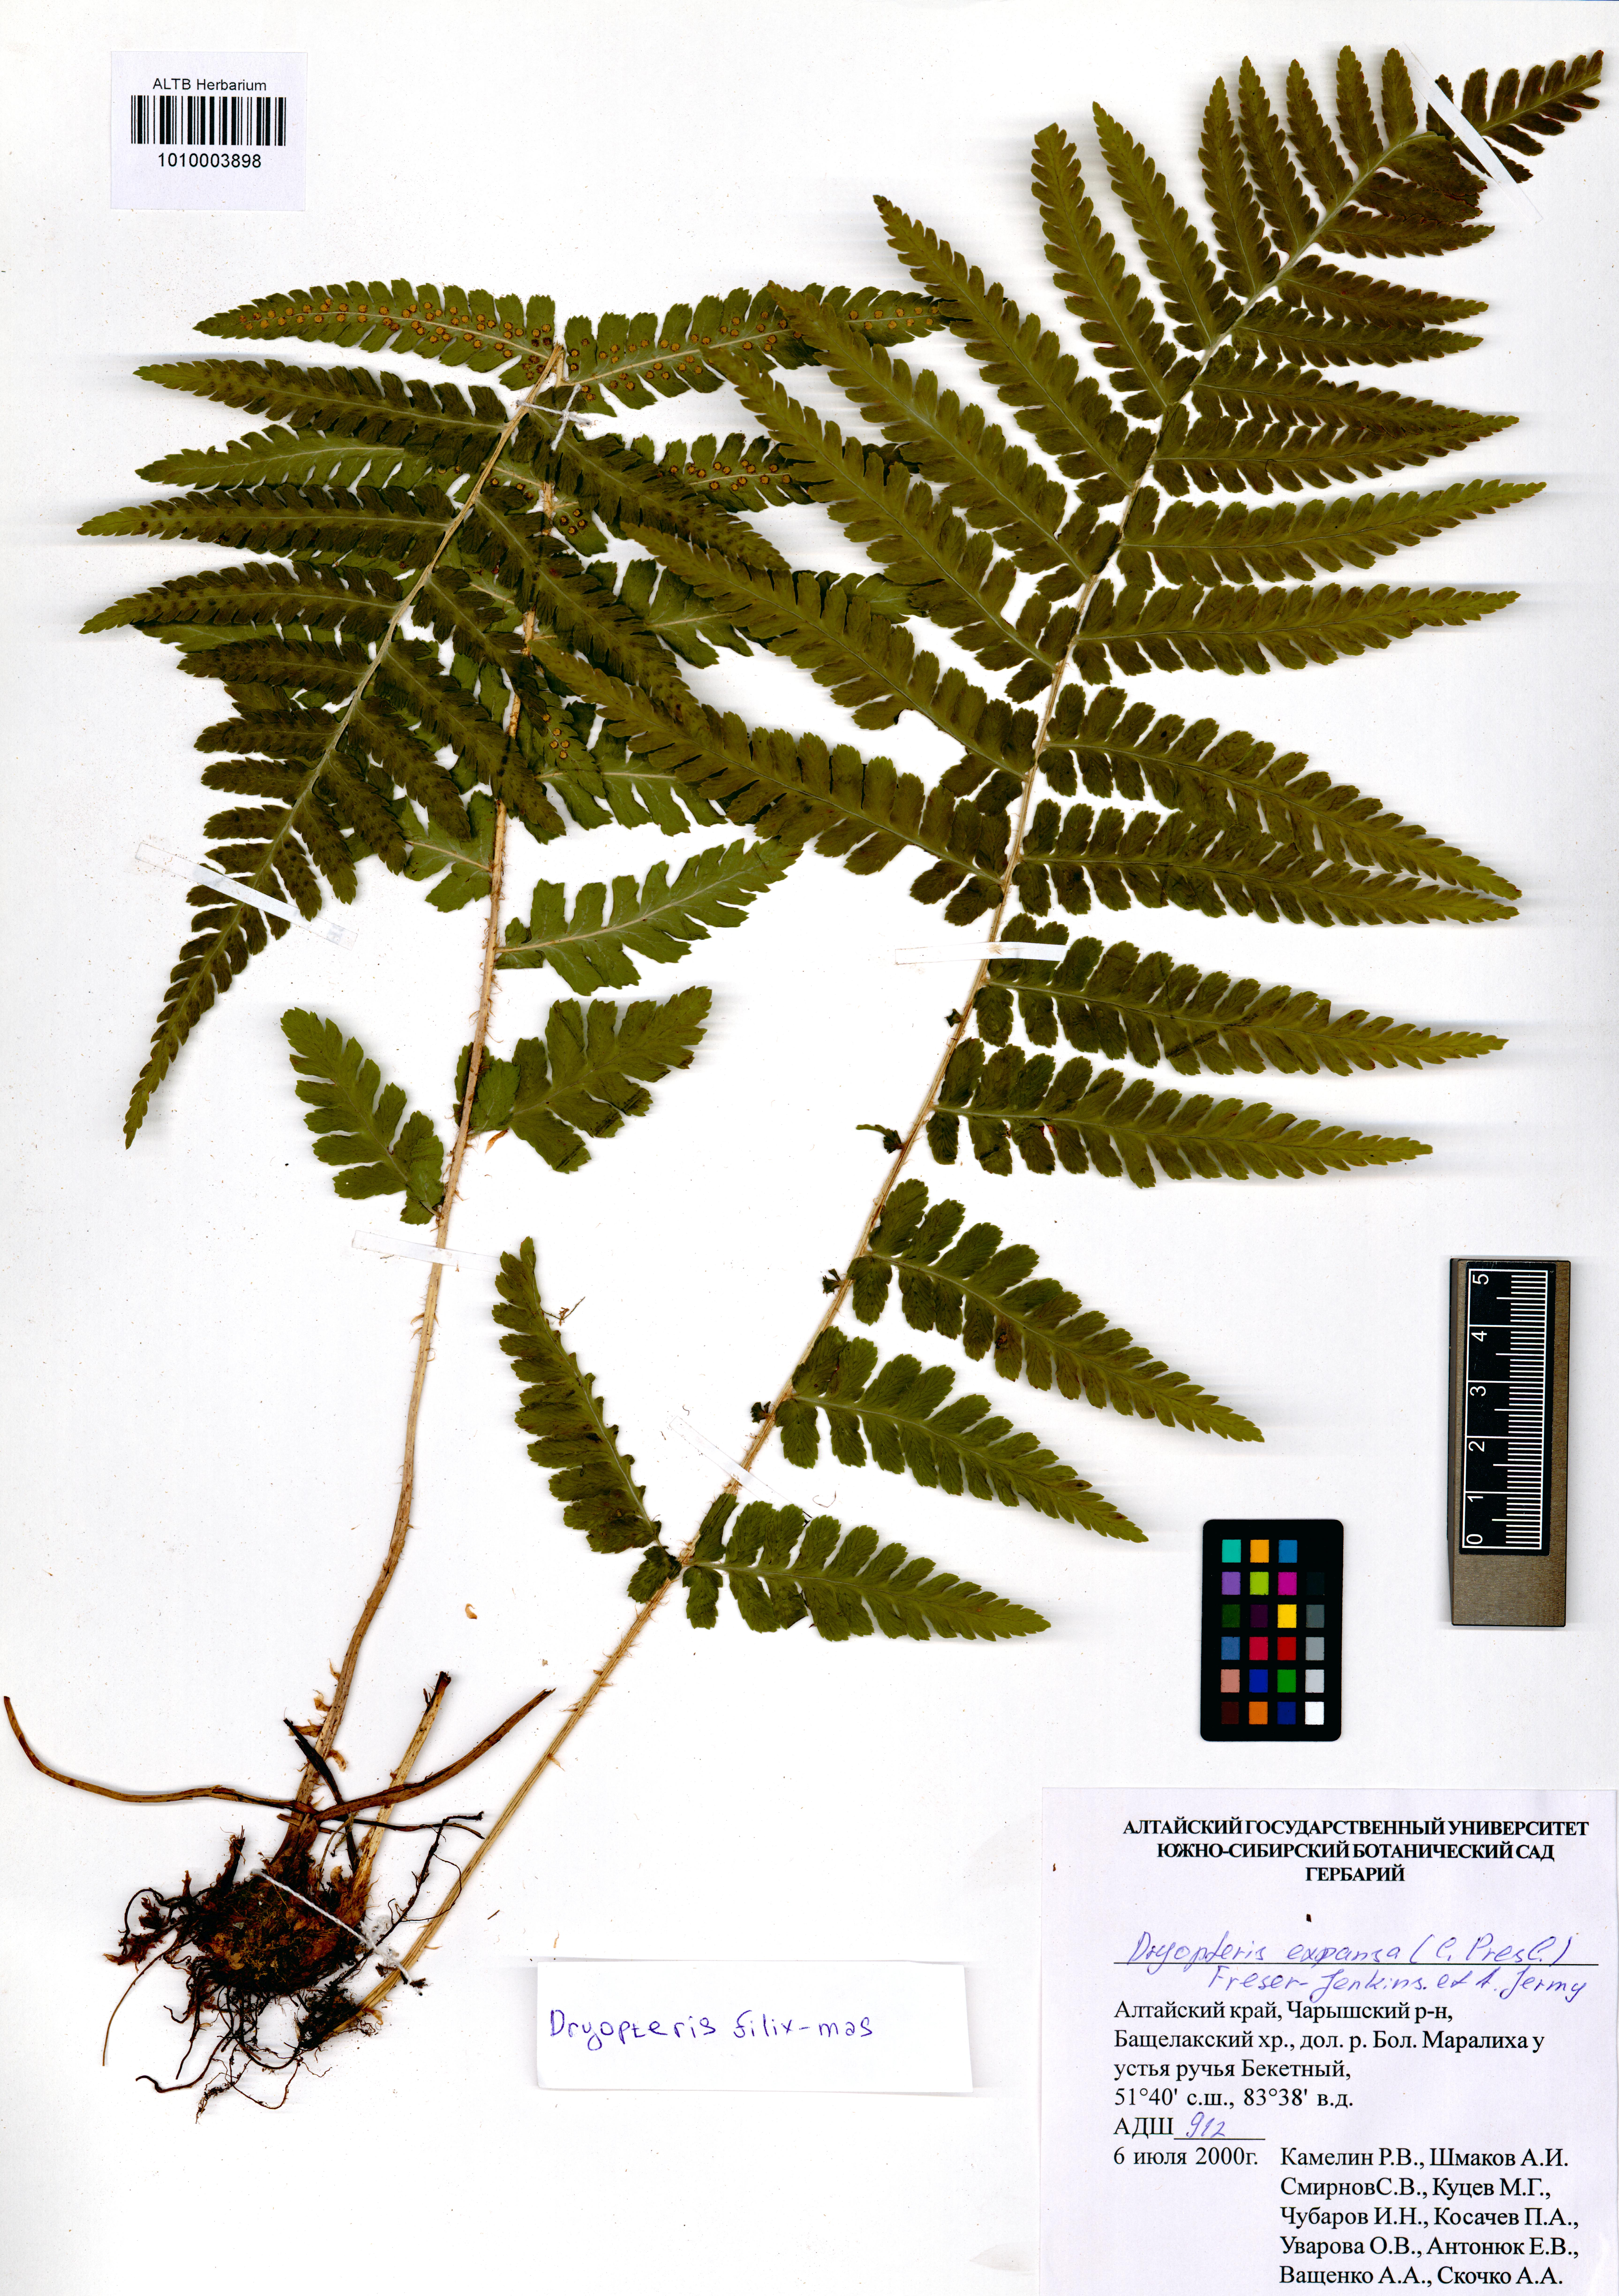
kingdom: Plantae
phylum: Tracheophyta
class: Polypodiopsida
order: Polypodiales
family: Dryopteridaceae
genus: Dryopteris
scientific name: Dryopteris filix-mas
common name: Male fern
